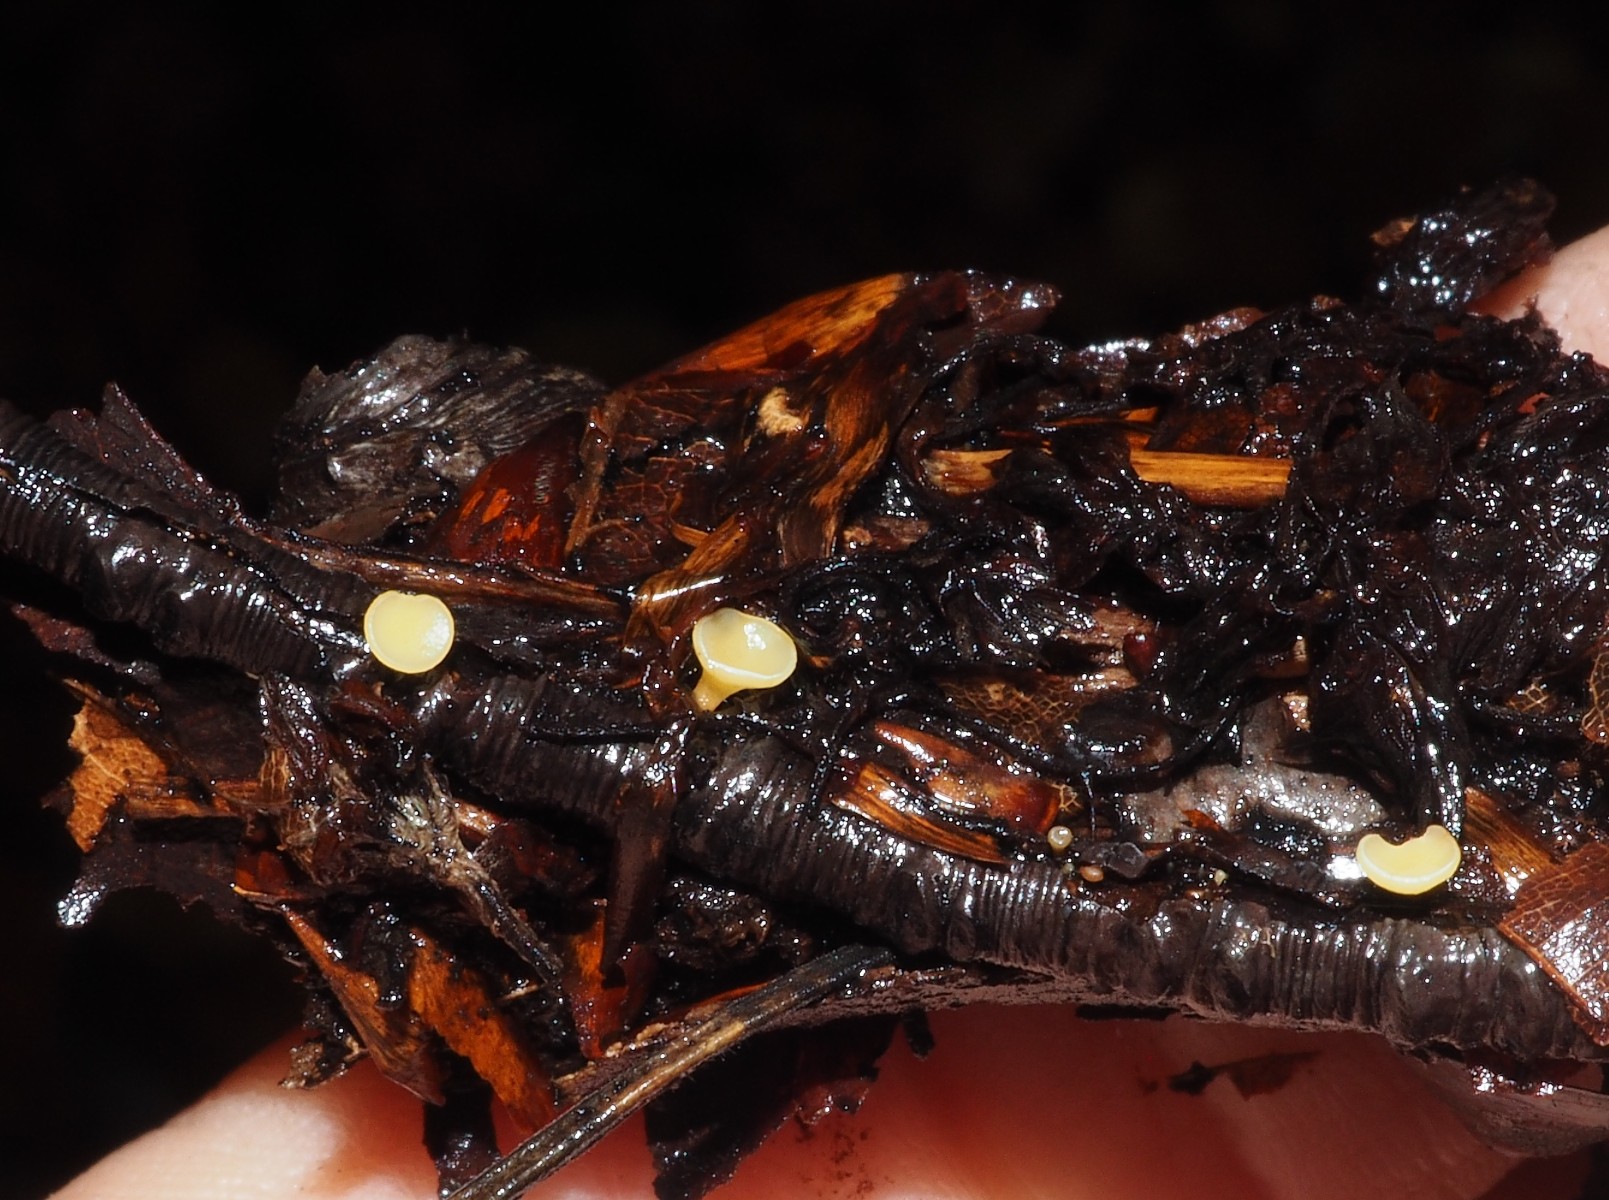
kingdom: Fungi
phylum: Ascomycota
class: Leotiomycetes
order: Helotiales
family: Helotiaceae
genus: Hymenoscyphus
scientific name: Hymenoscyphus serotinus
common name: krumsporet stilkskive
